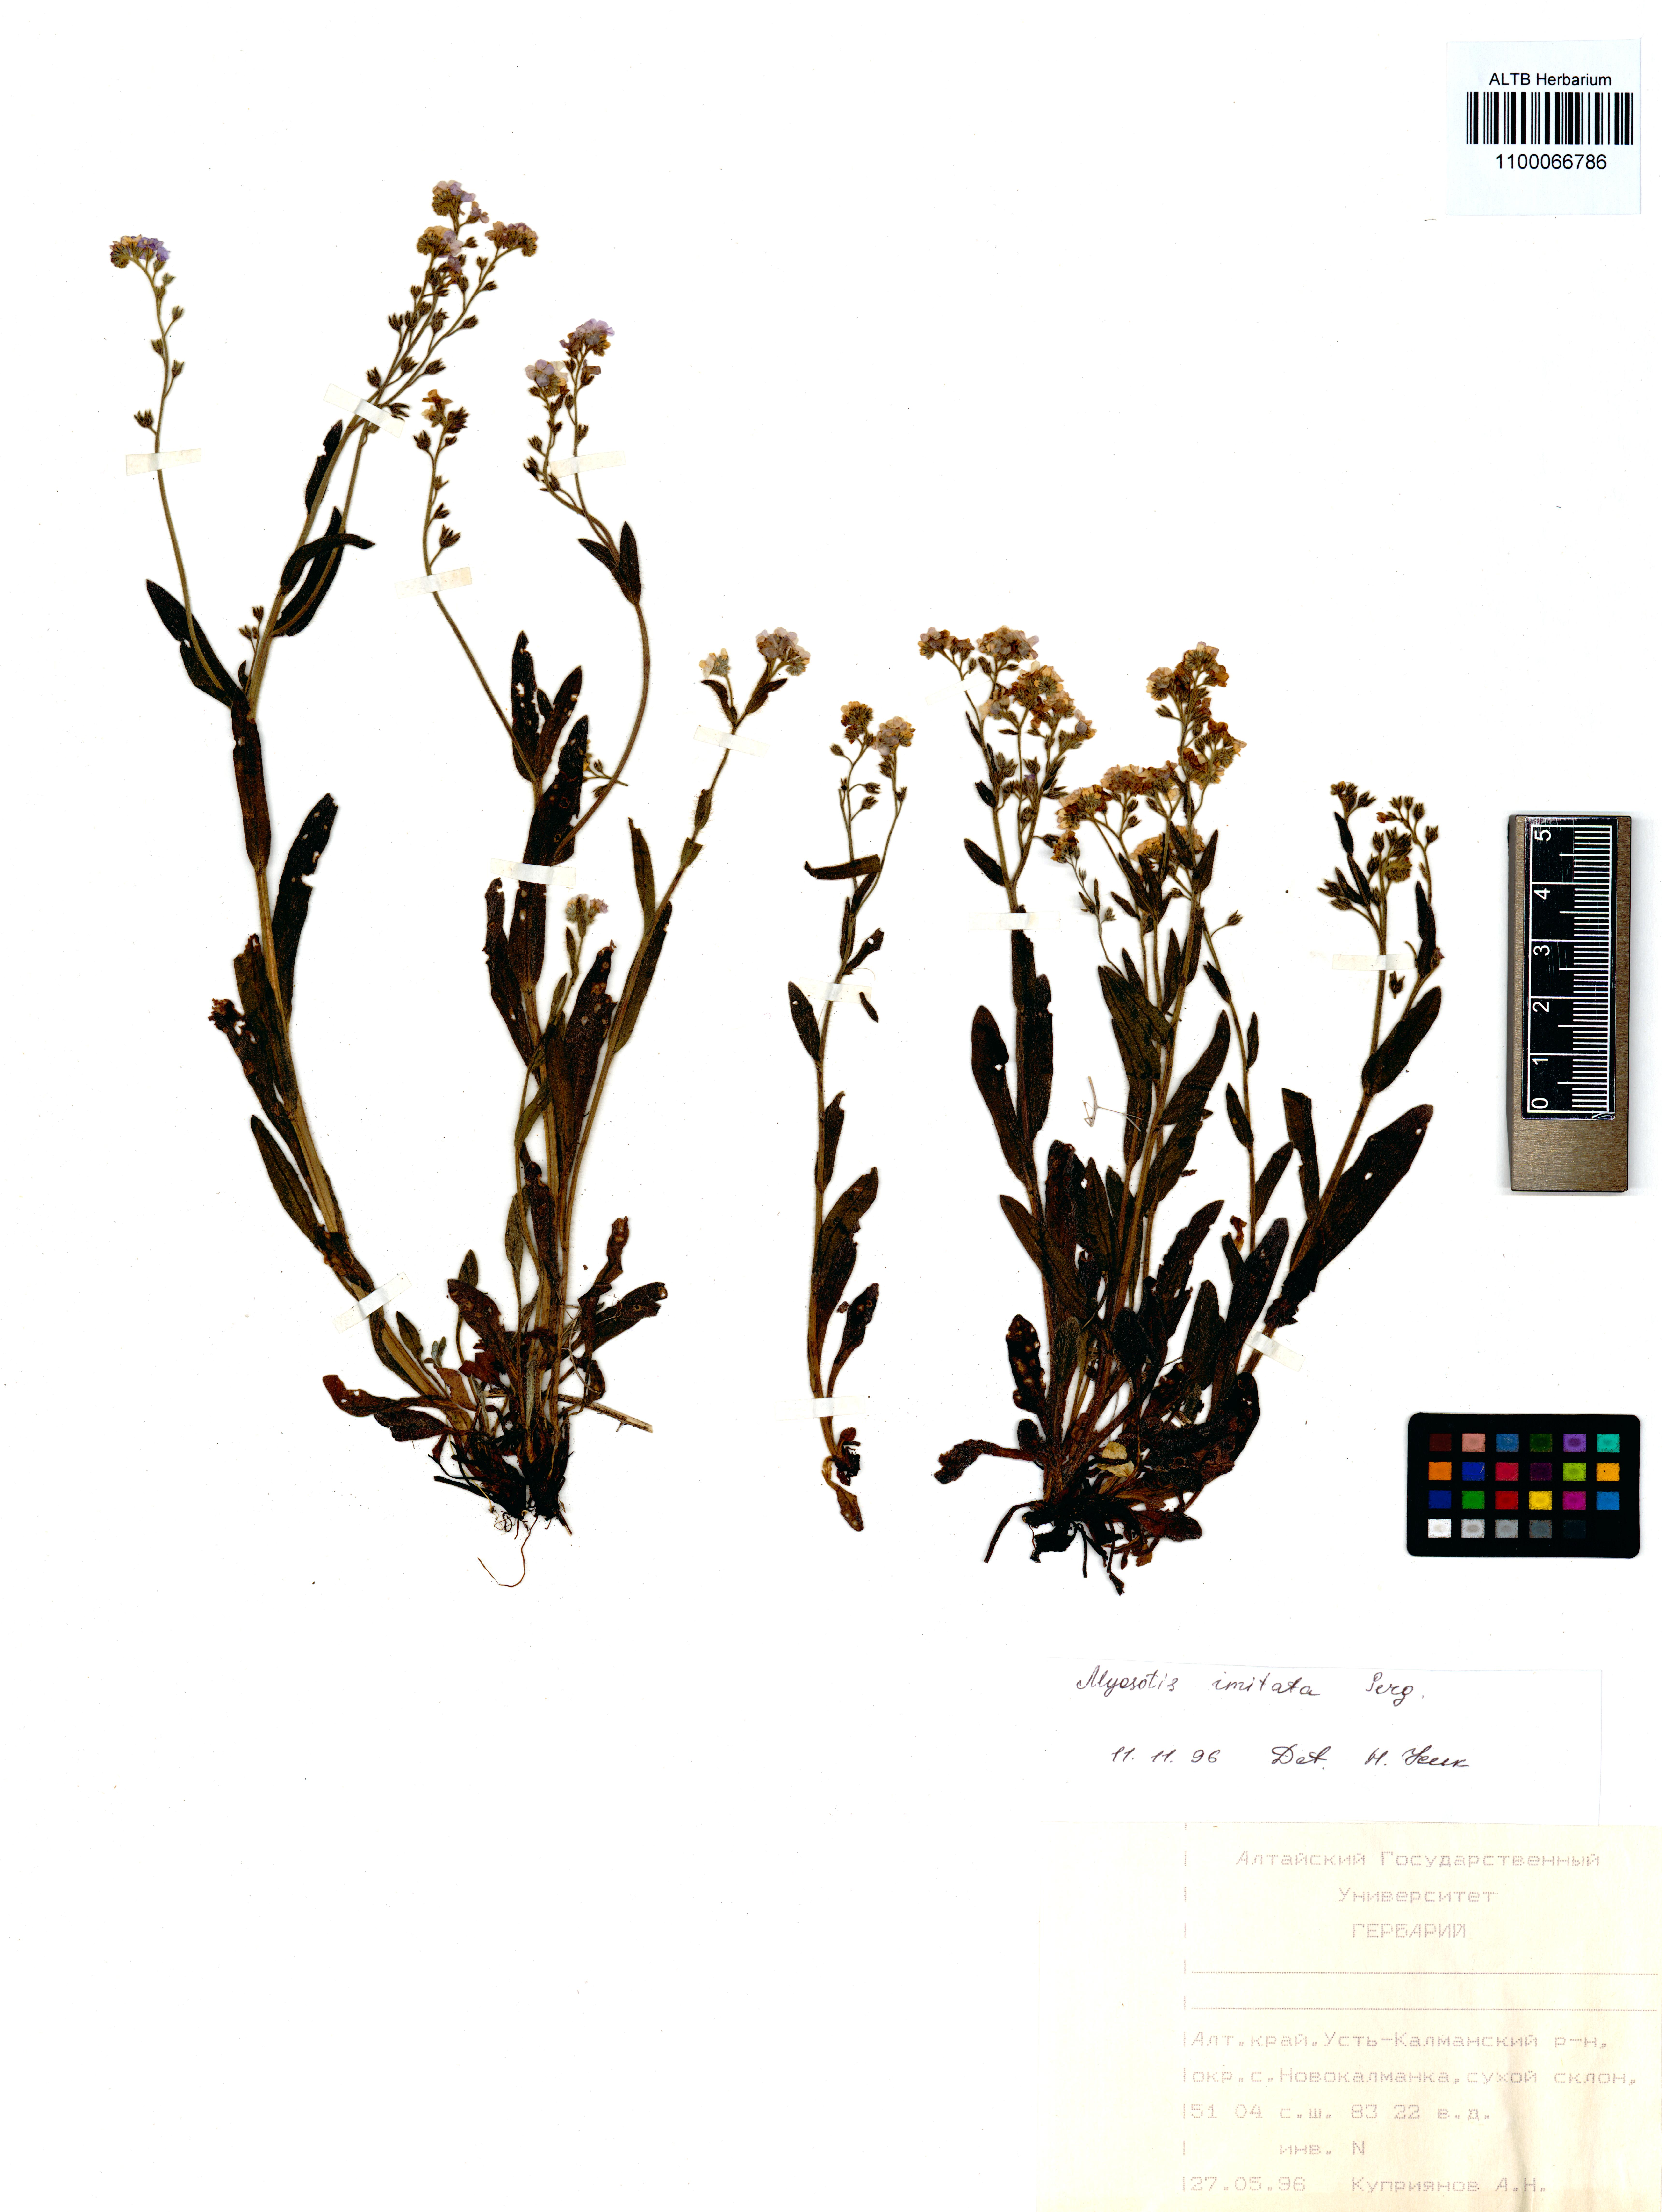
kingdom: Plantae
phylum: Tracheophyta
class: Magnoliopsida
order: Boraginales
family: Boraginaceae
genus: Myosotis
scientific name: Myosotis imitata
